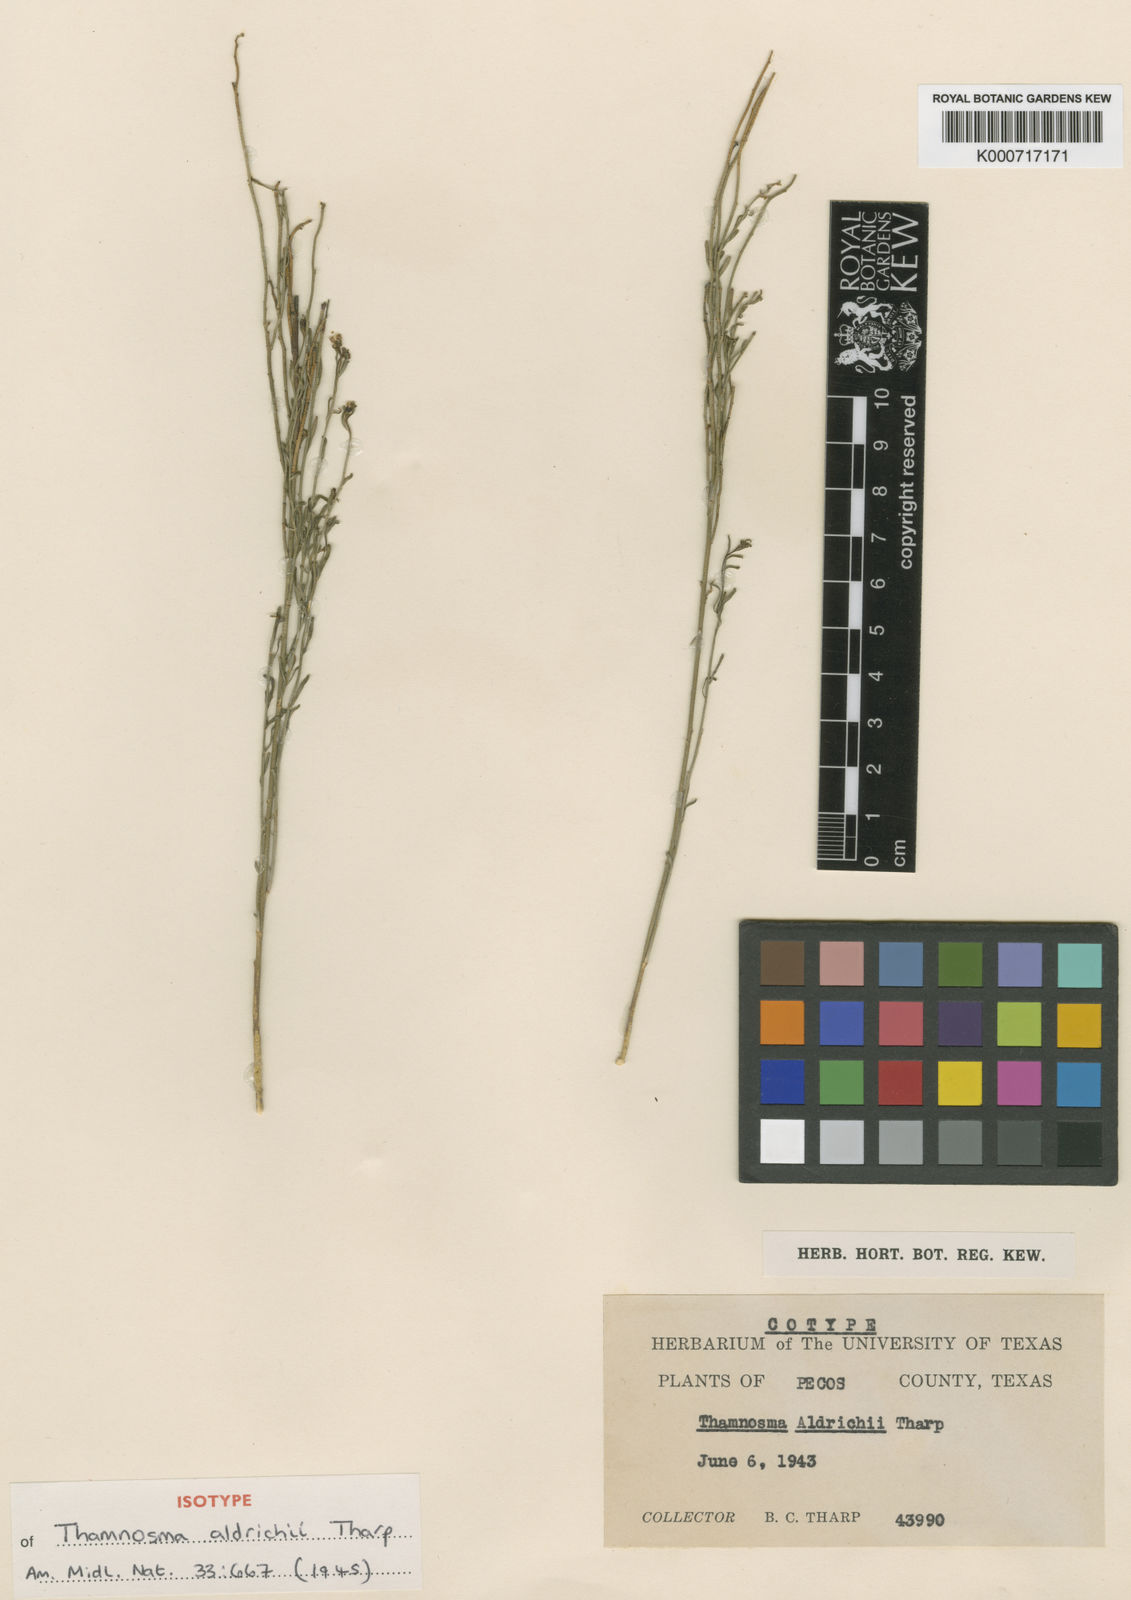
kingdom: Plantae
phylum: Tracheophyta
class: Magnoliopsida
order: Sapindales
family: Rutaceae
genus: Thamnosma
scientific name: Thamnosma texana
